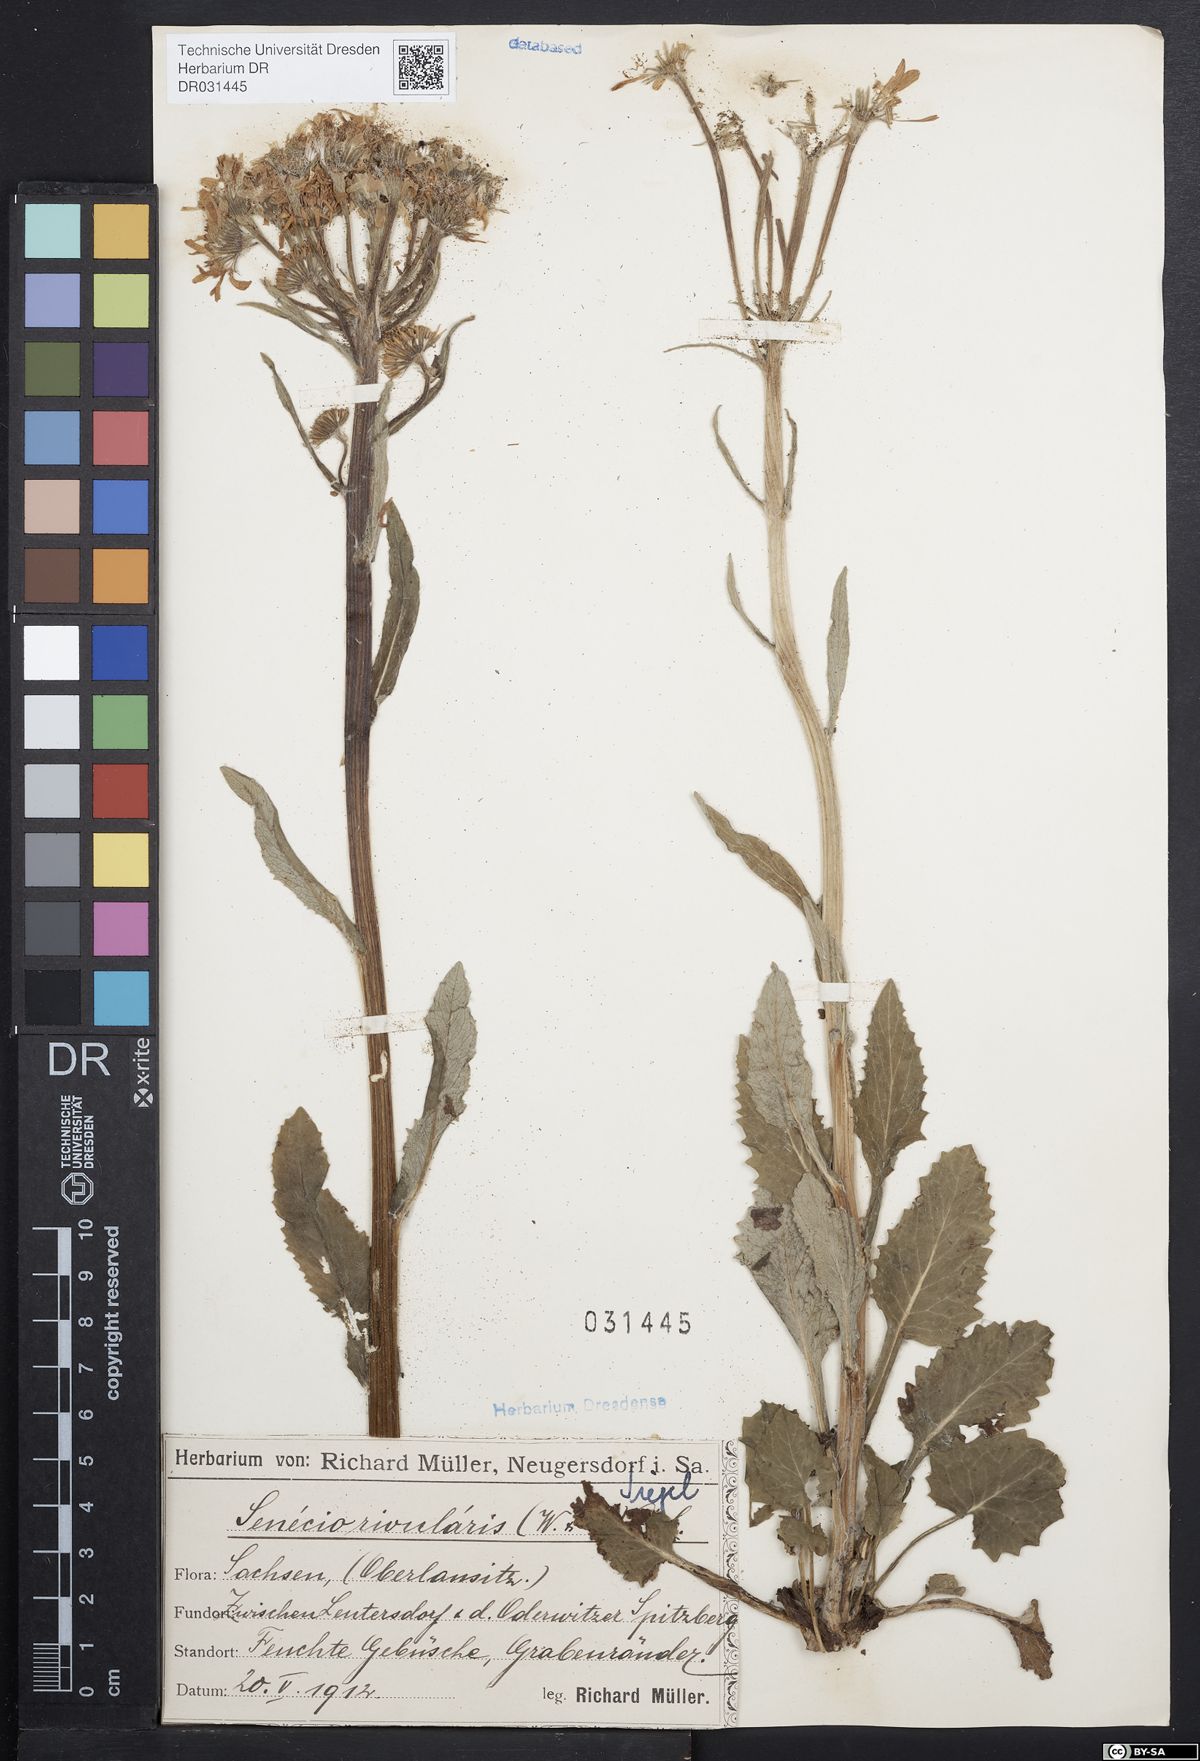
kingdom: Plantae
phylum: Tracheophyta
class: Magnoliopsida
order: Asterales
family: Asteraceae
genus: Tephroseris
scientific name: Tephroseris crispa
